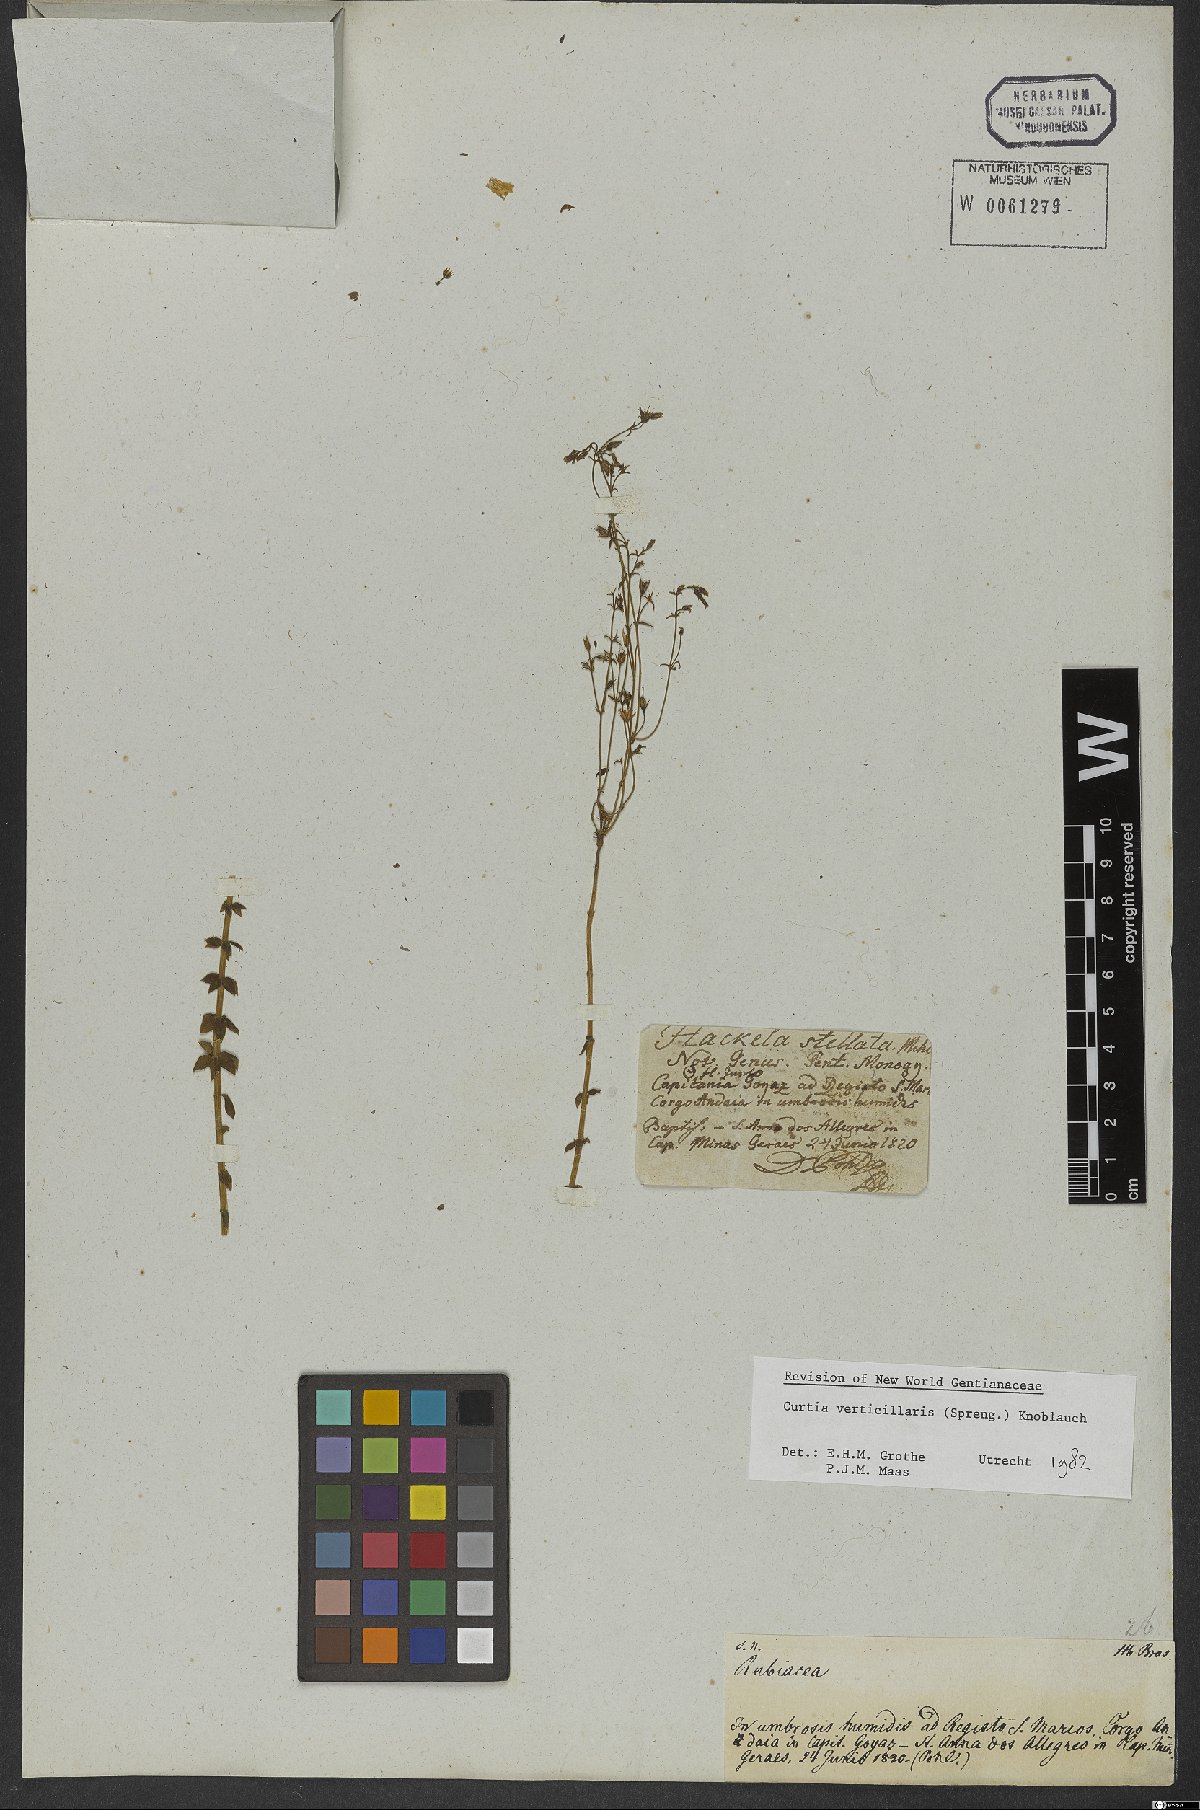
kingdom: Plantae
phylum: Tracheophyta
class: Magnoliopsida
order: Gentianales
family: Gentianaceae
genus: Curtia
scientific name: Curtia verticillaris
